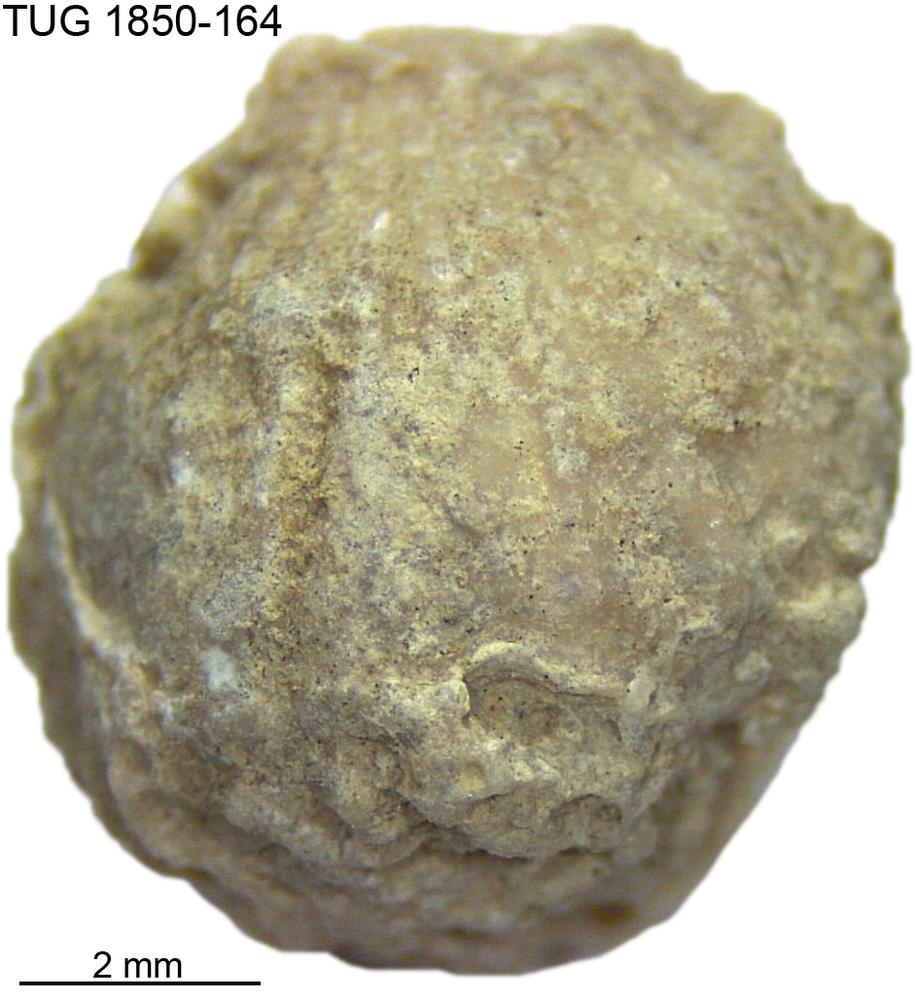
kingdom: Animalia
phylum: Brachiopoda
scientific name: Brachiopoda
